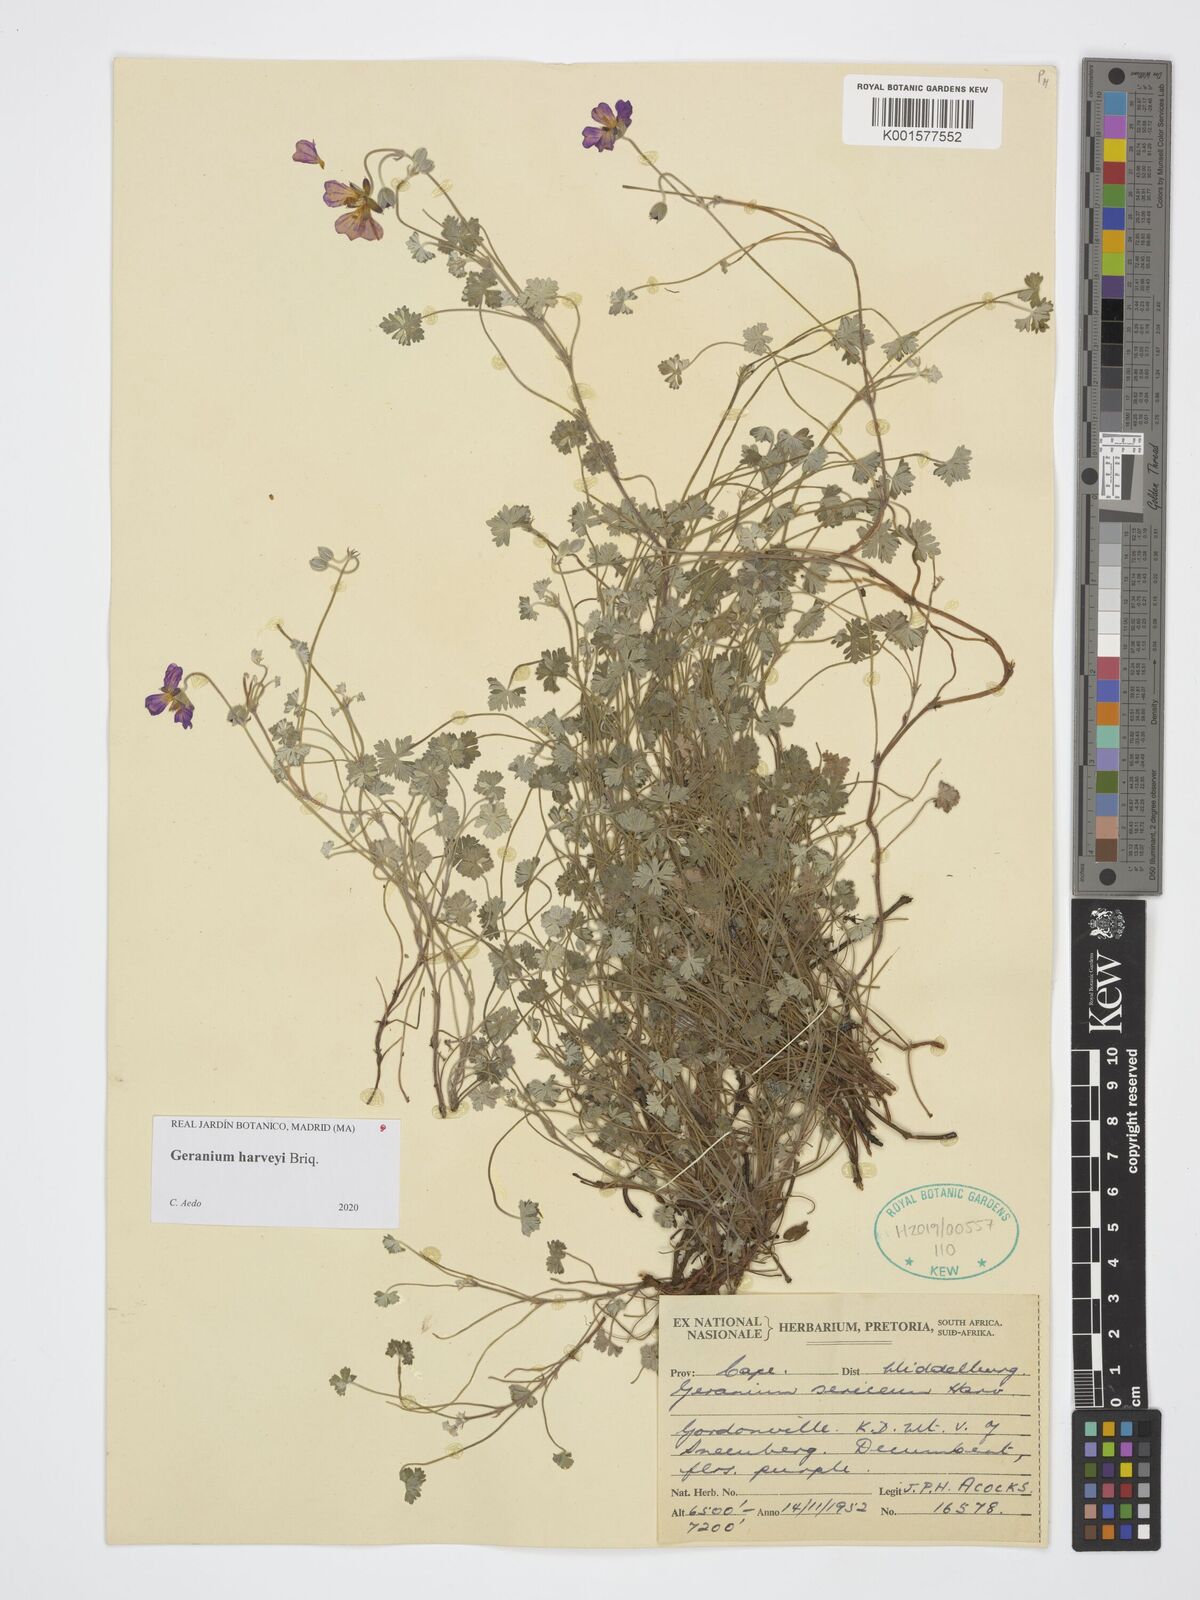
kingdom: Plantae
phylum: Tracheophyta
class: Magnoliopsida
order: Geraniales
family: Geraniaceae
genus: Geranium
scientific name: Geranium harveyi
